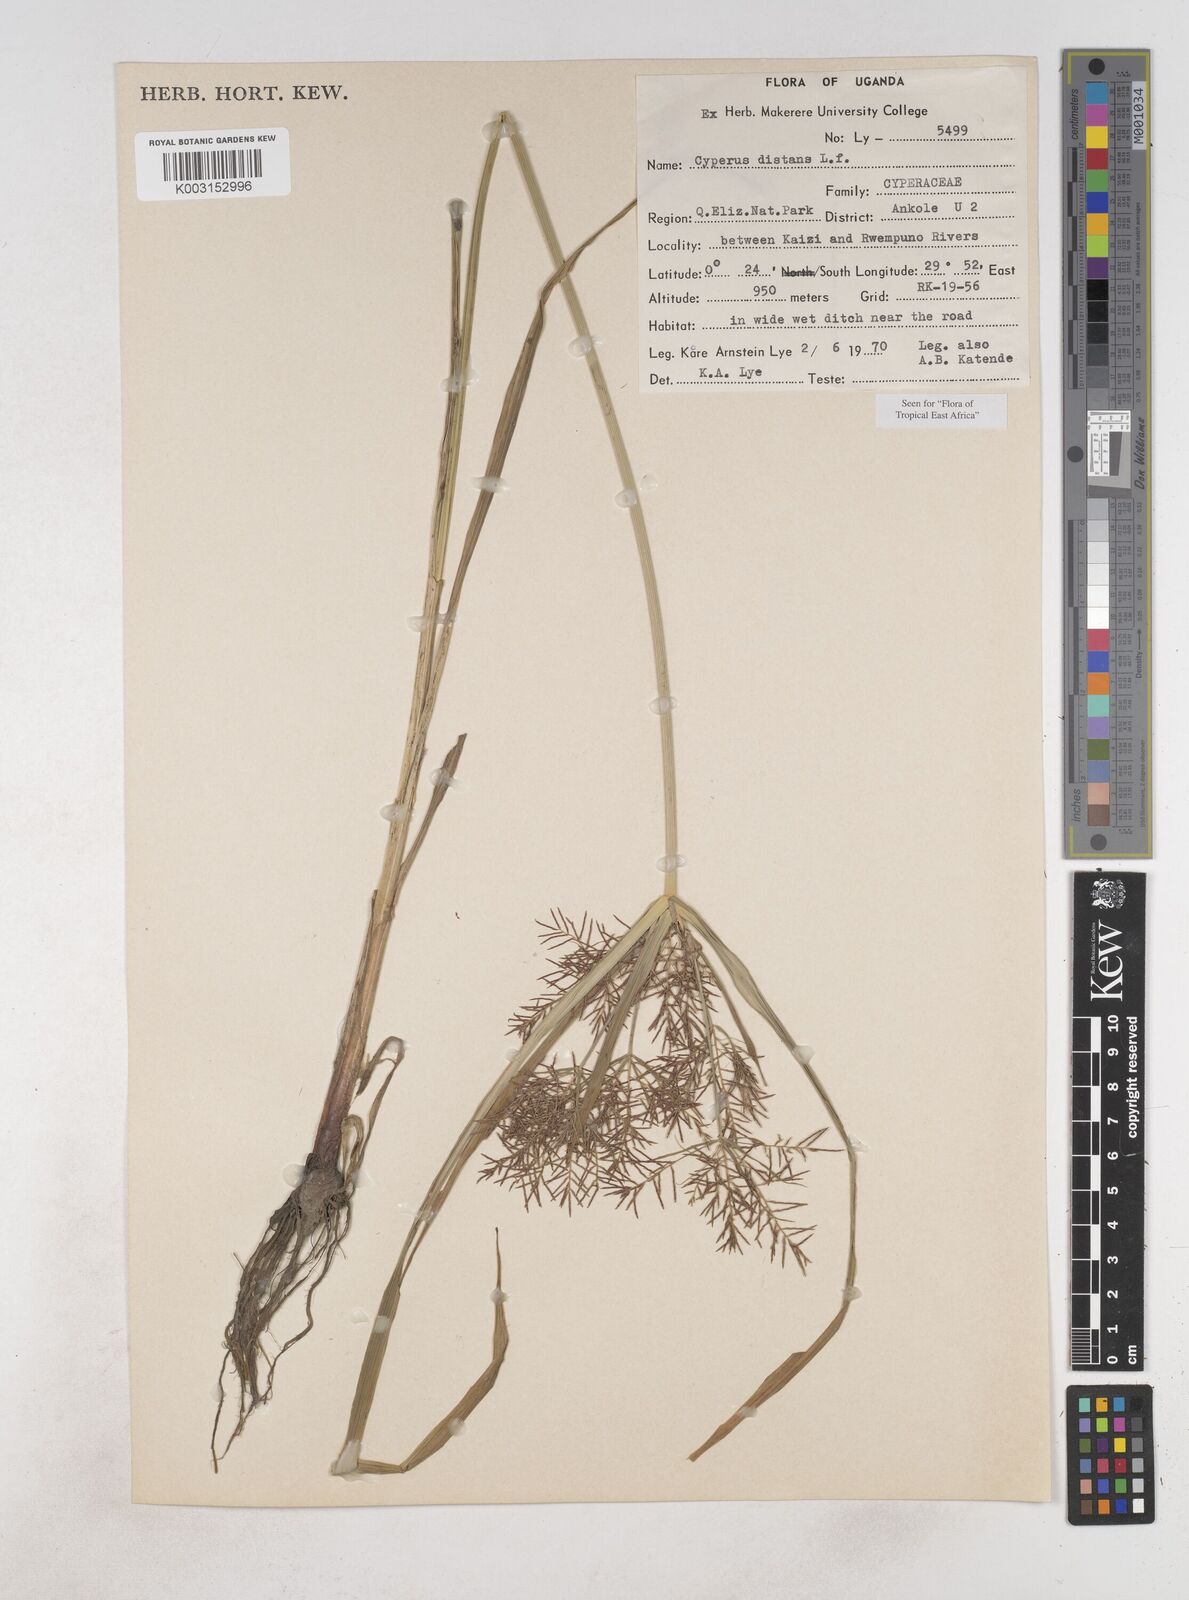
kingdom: Plantae
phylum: Tracheophyta
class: Liliopsida
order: Poales
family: Cyperaceae
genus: Cyperus
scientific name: Cyperus distans
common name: Slender cyperus
